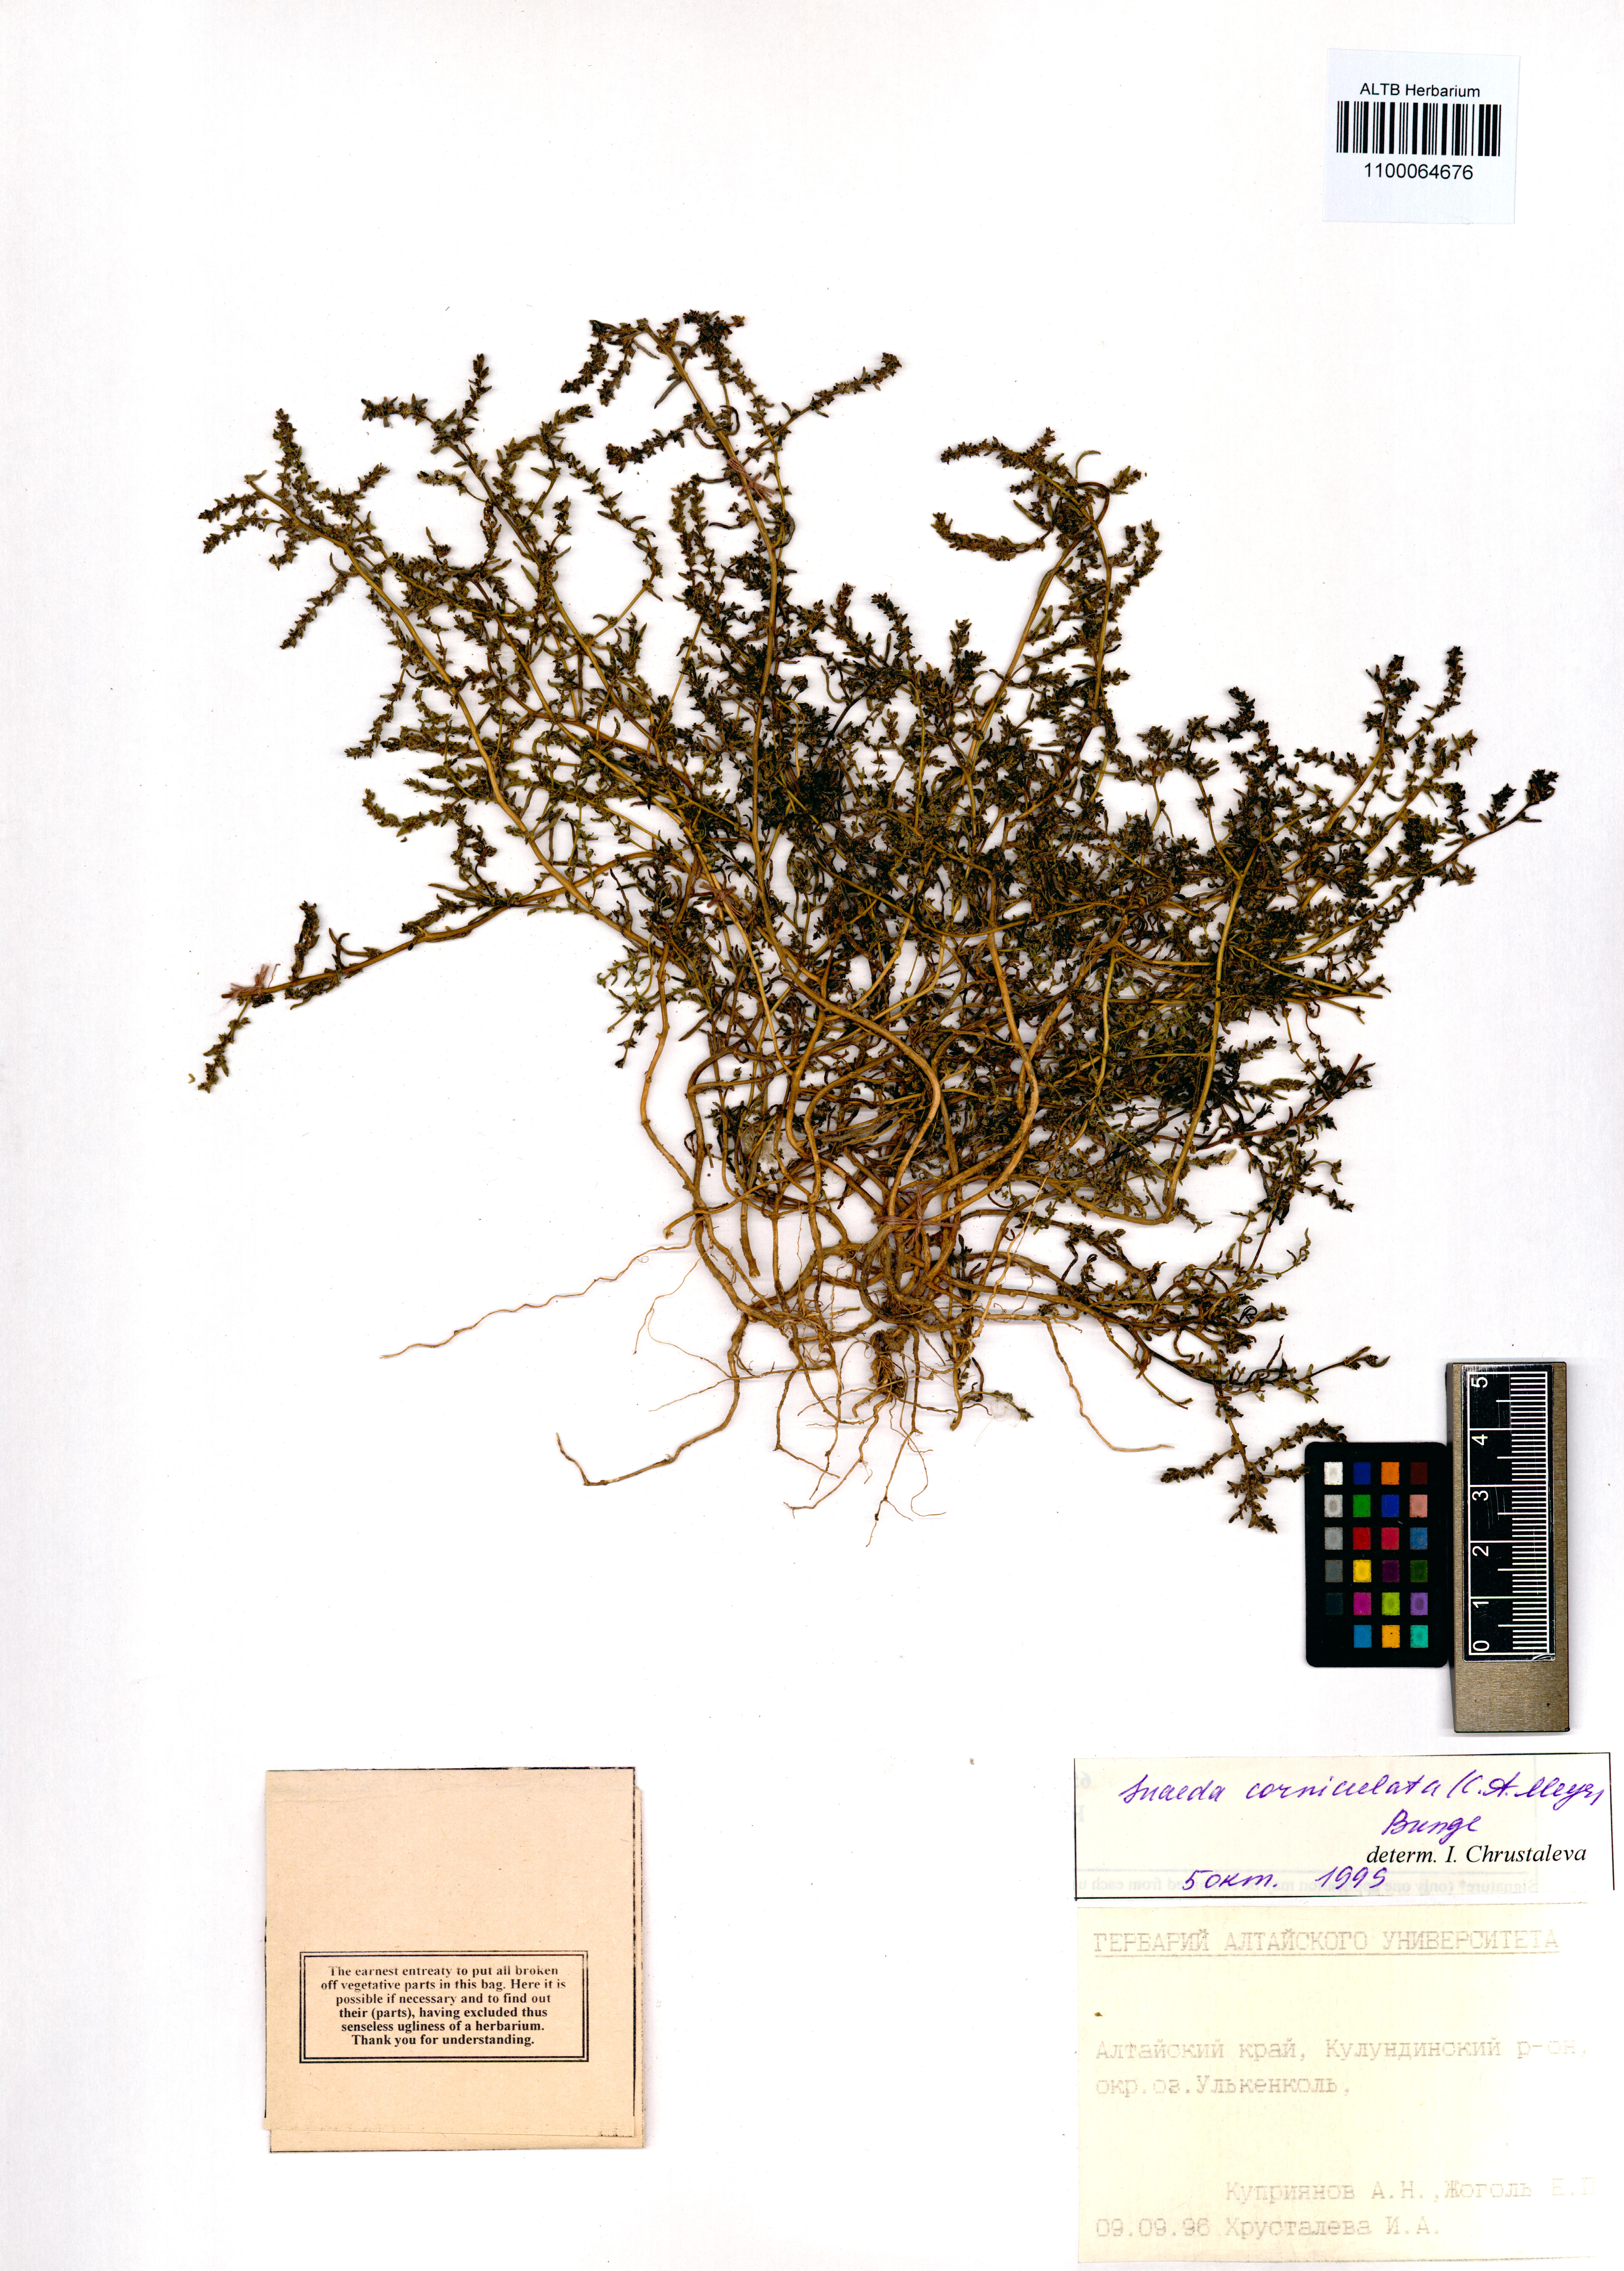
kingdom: Plantae
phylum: Tracheophyta
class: Magnoliopsida
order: Caryophyllales
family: Amaranthaceae
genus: Suaeda
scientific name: Suaeda corniculata
